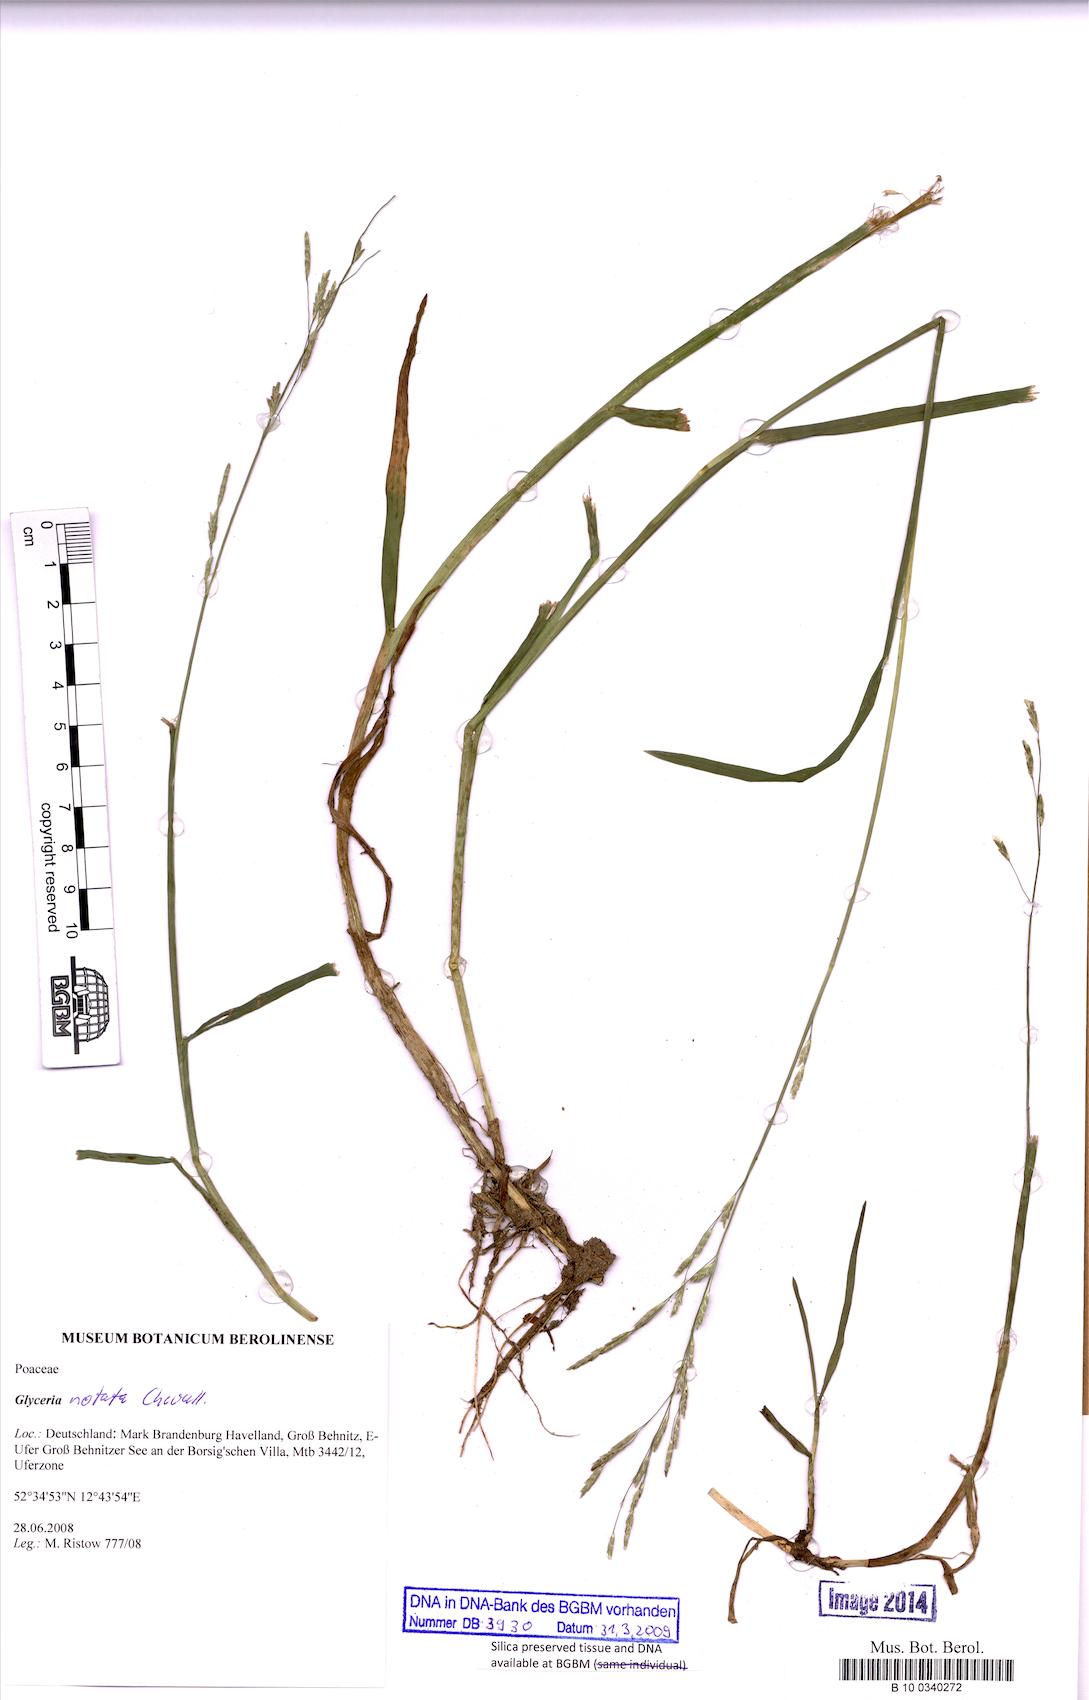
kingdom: Plantae
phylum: Tracheophyta
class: Liliopsida
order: Poales
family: Poaceae
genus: Glyceria
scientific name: Glyceria
